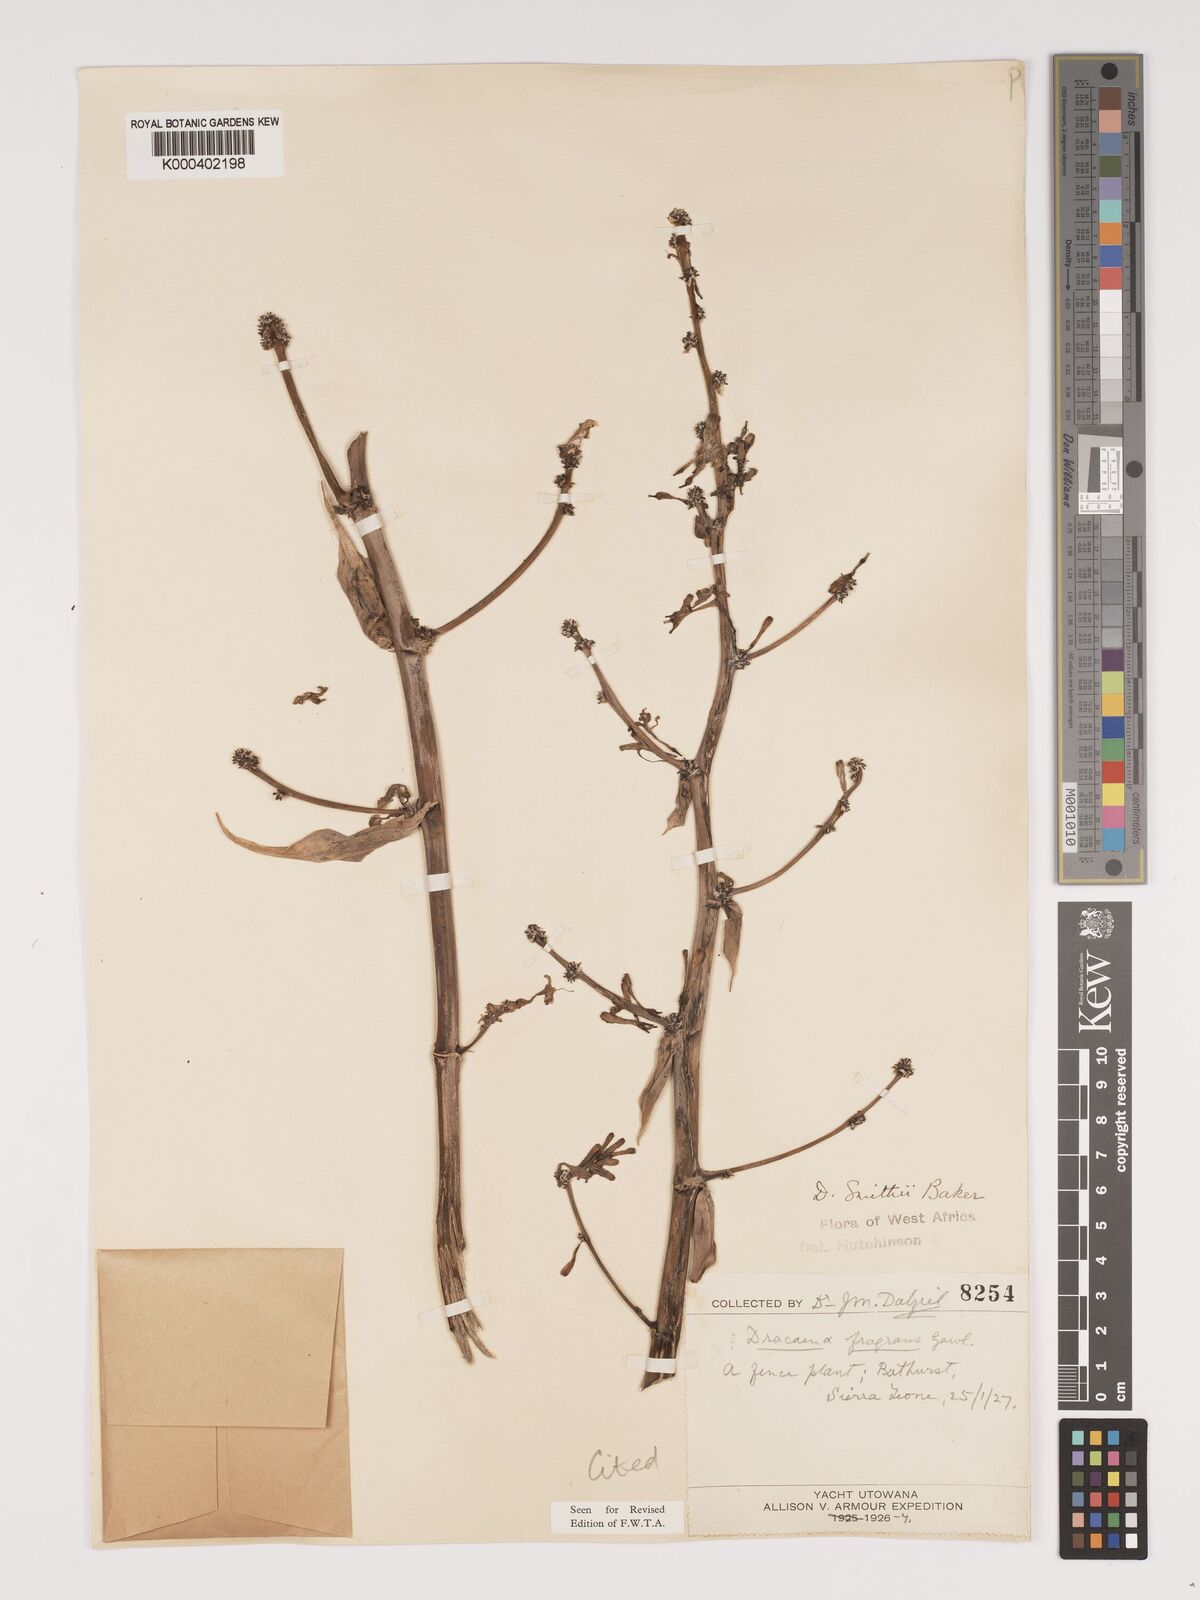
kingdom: Plantae
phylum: Tracheophyta
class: Liliopsida
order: Asparagales
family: Asparagaceae
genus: Dracaena
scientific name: Dracaena fragrans
